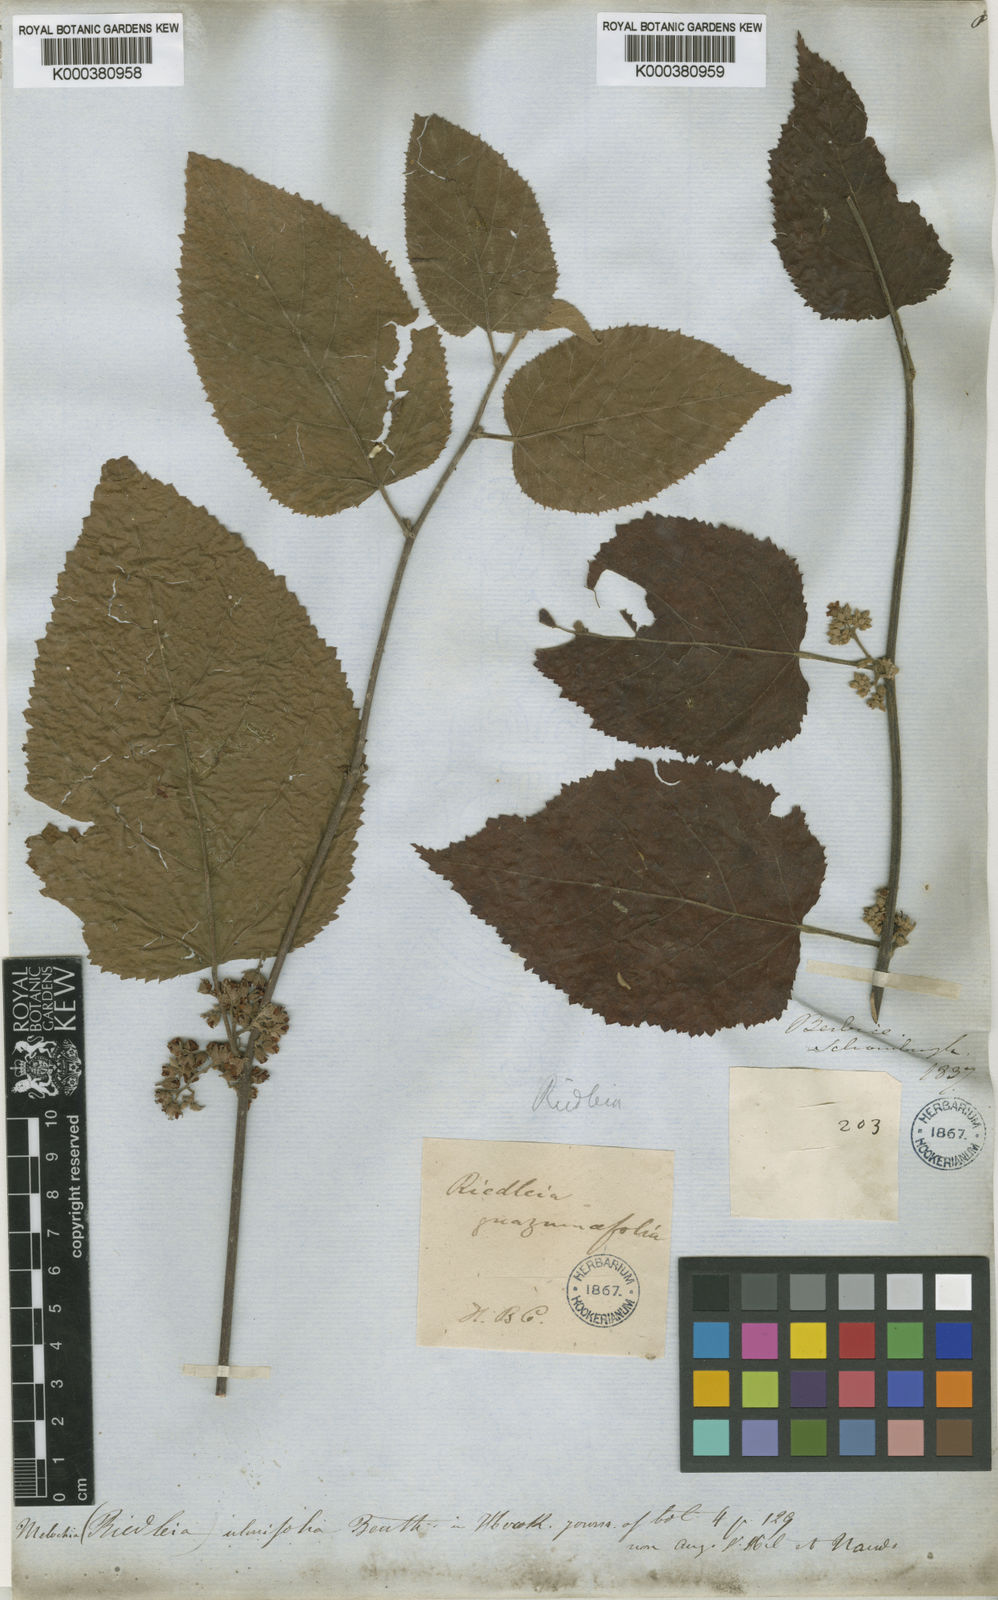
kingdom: Plantae
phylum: Tracheophyta
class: Magnoliopsida
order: Malvales
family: Malvaceae
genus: Melochia
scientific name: Melochia ulmifolia
